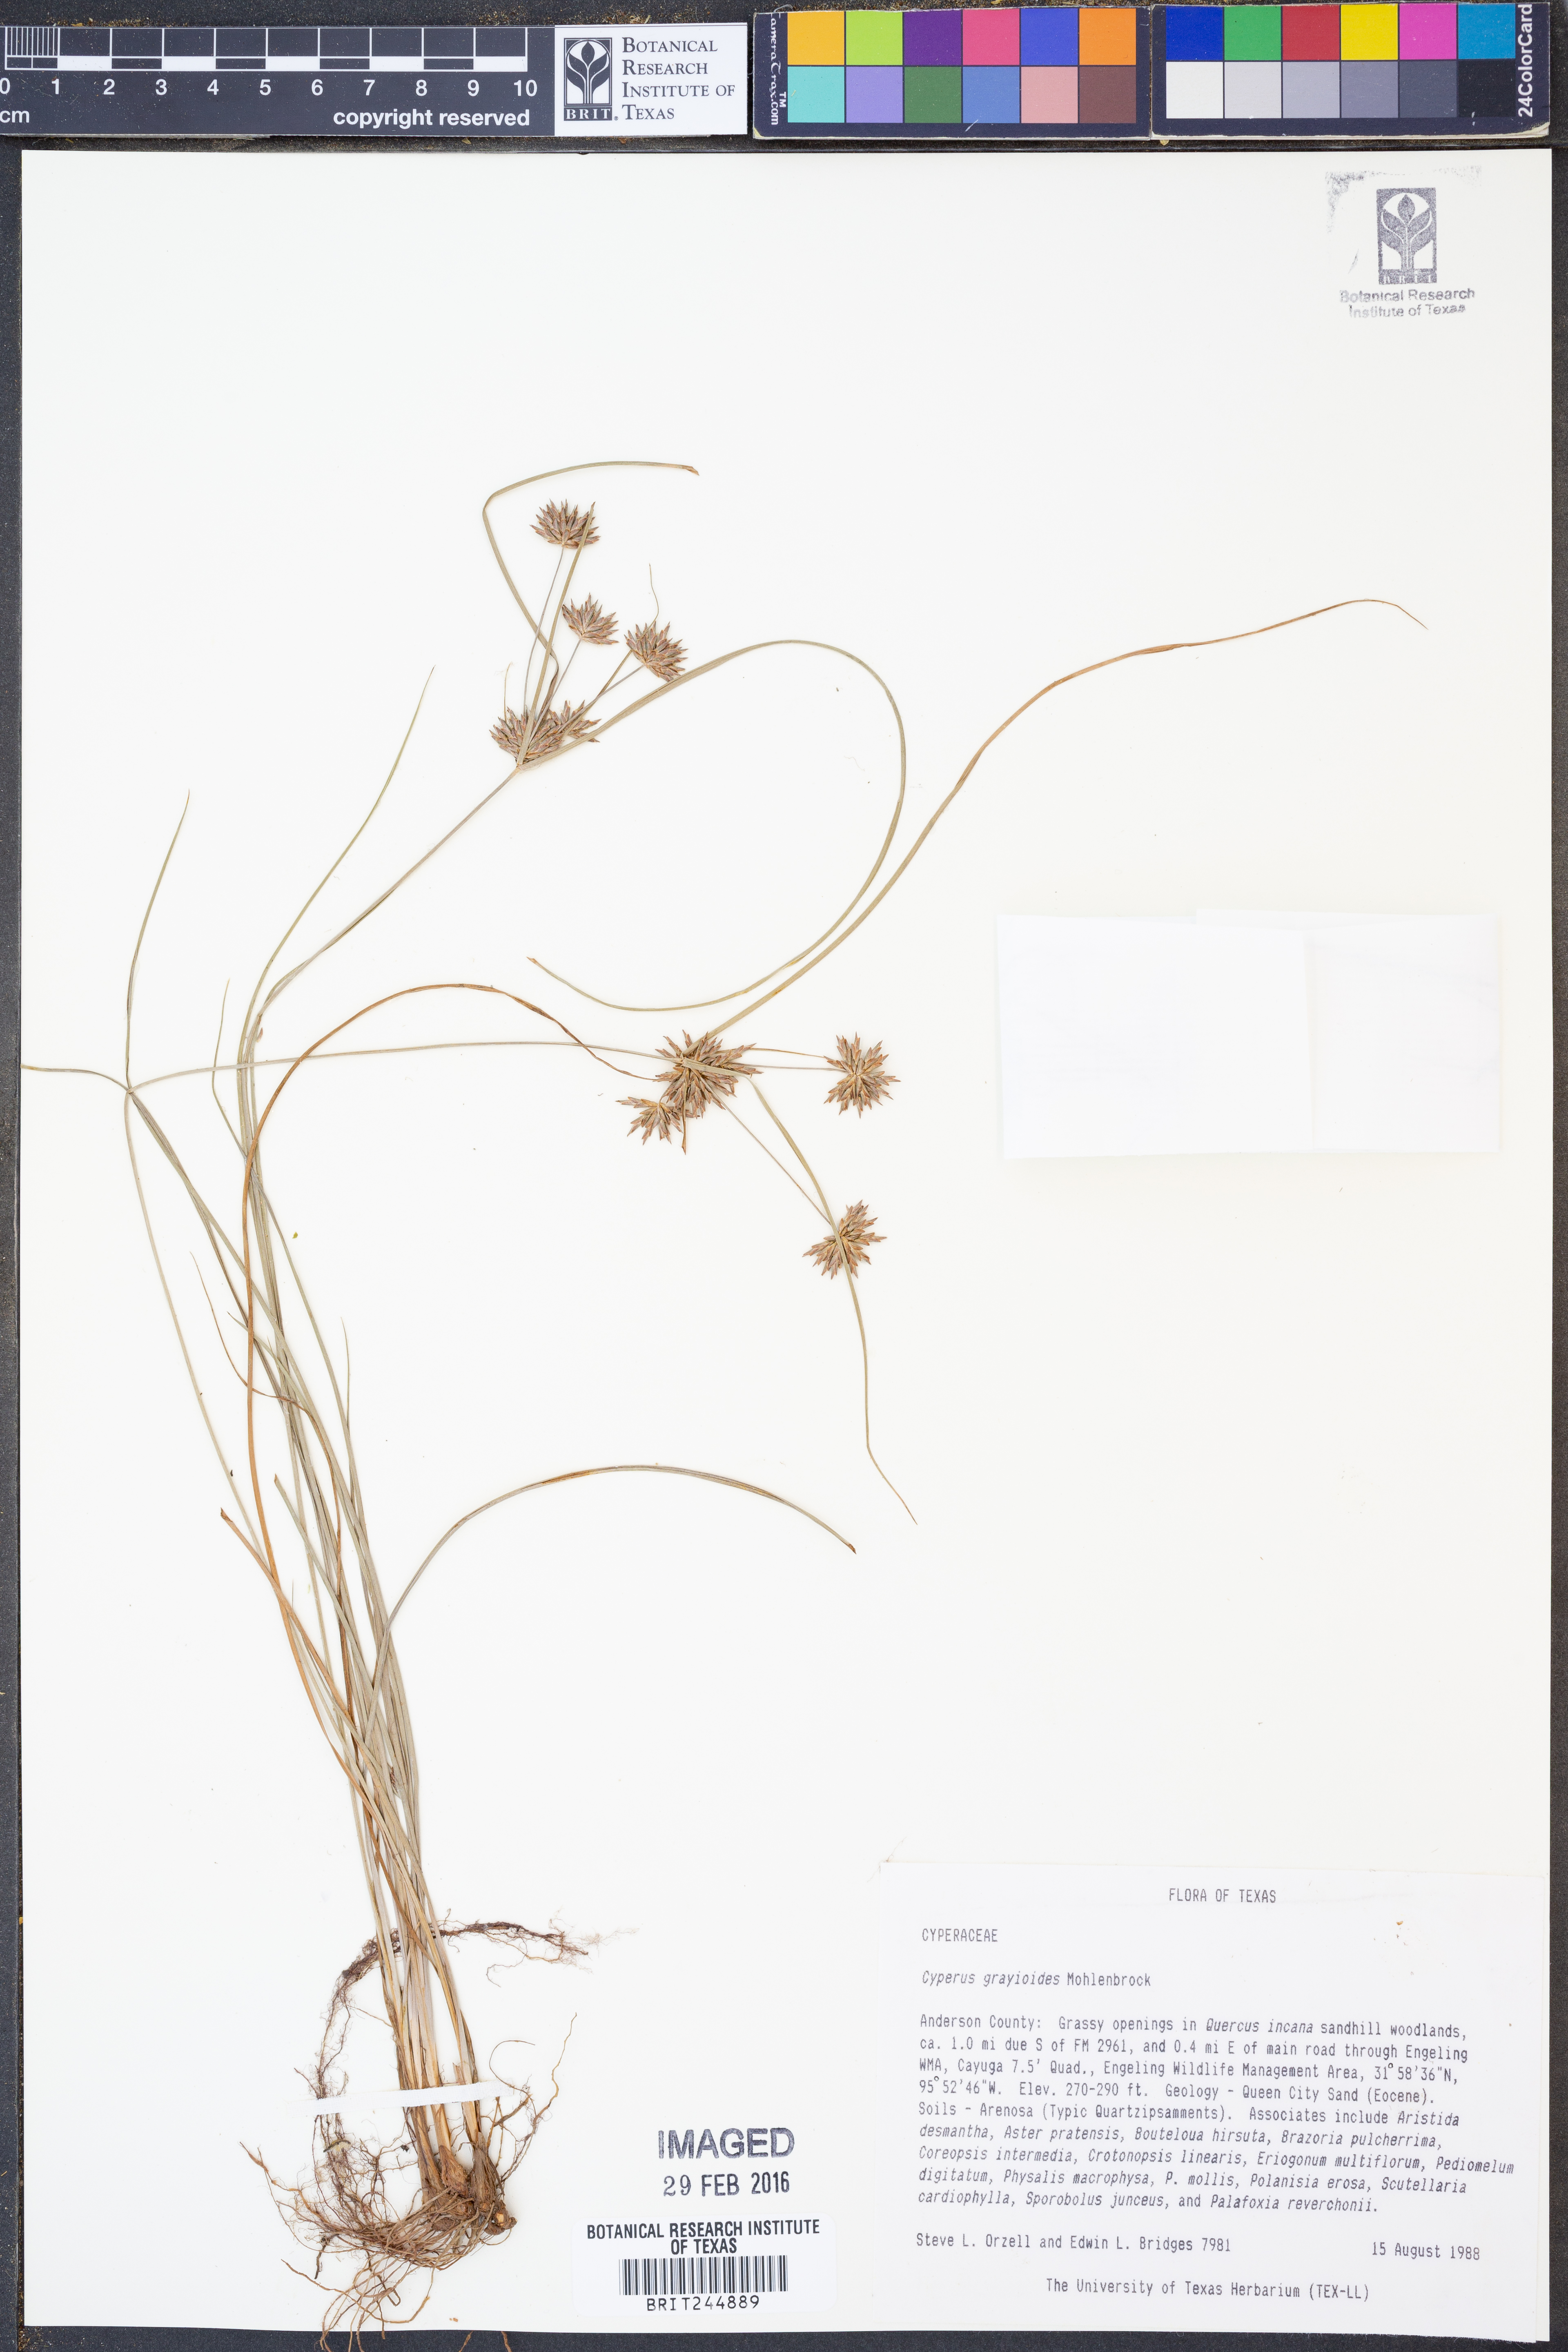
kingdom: Plantae
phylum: Tracheophyta
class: Liliopsida
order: Poales
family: Cyperaceae
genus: Cyperus
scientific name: Cyperus grayioides
